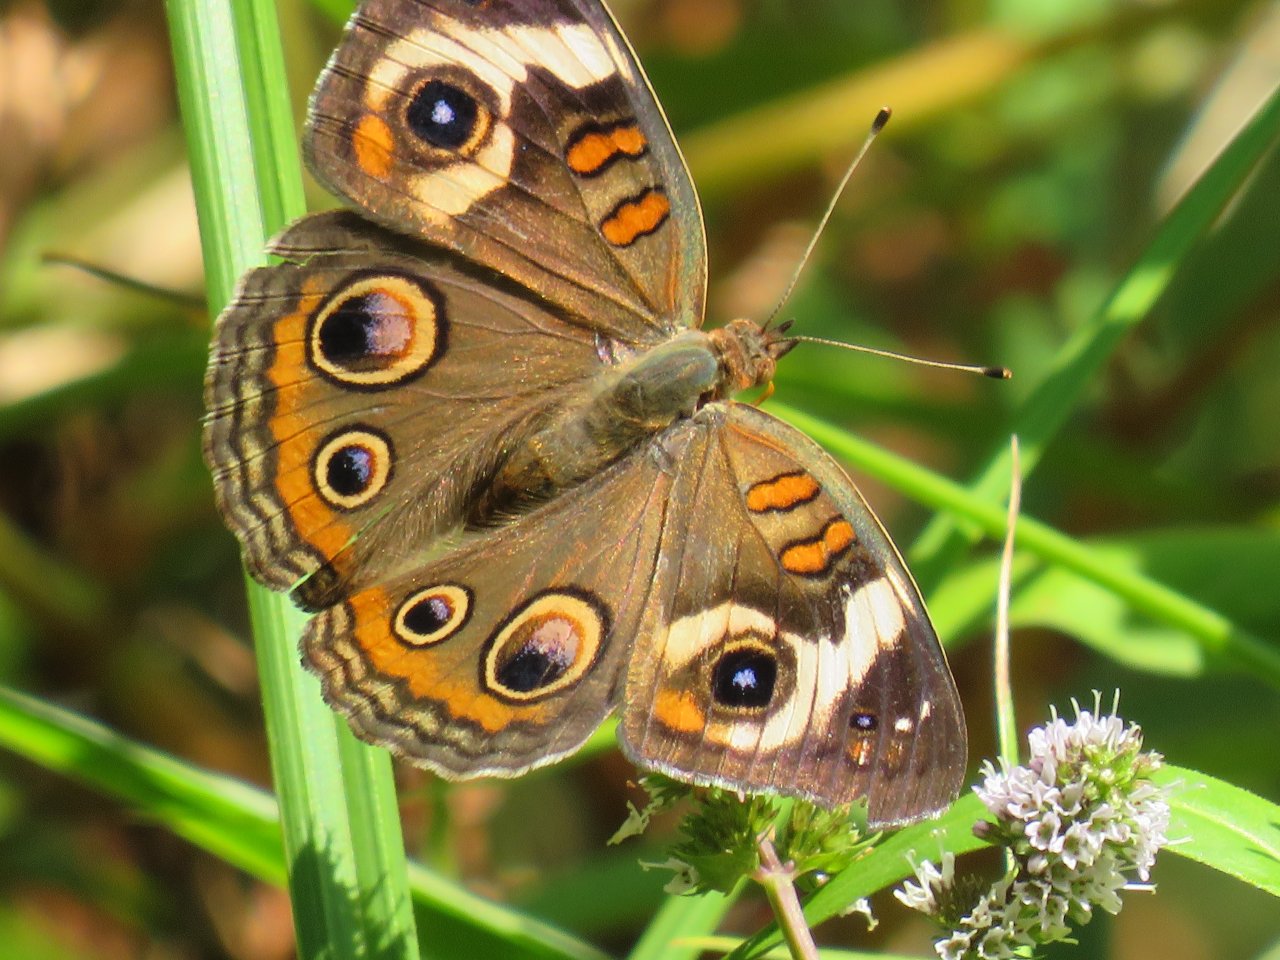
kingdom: Animalia
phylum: Arthropoda
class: Insecta
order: Lepidoptera
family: Nymphalidae
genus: Junonia
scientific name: Junonia coenia
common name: Common Buckeye
